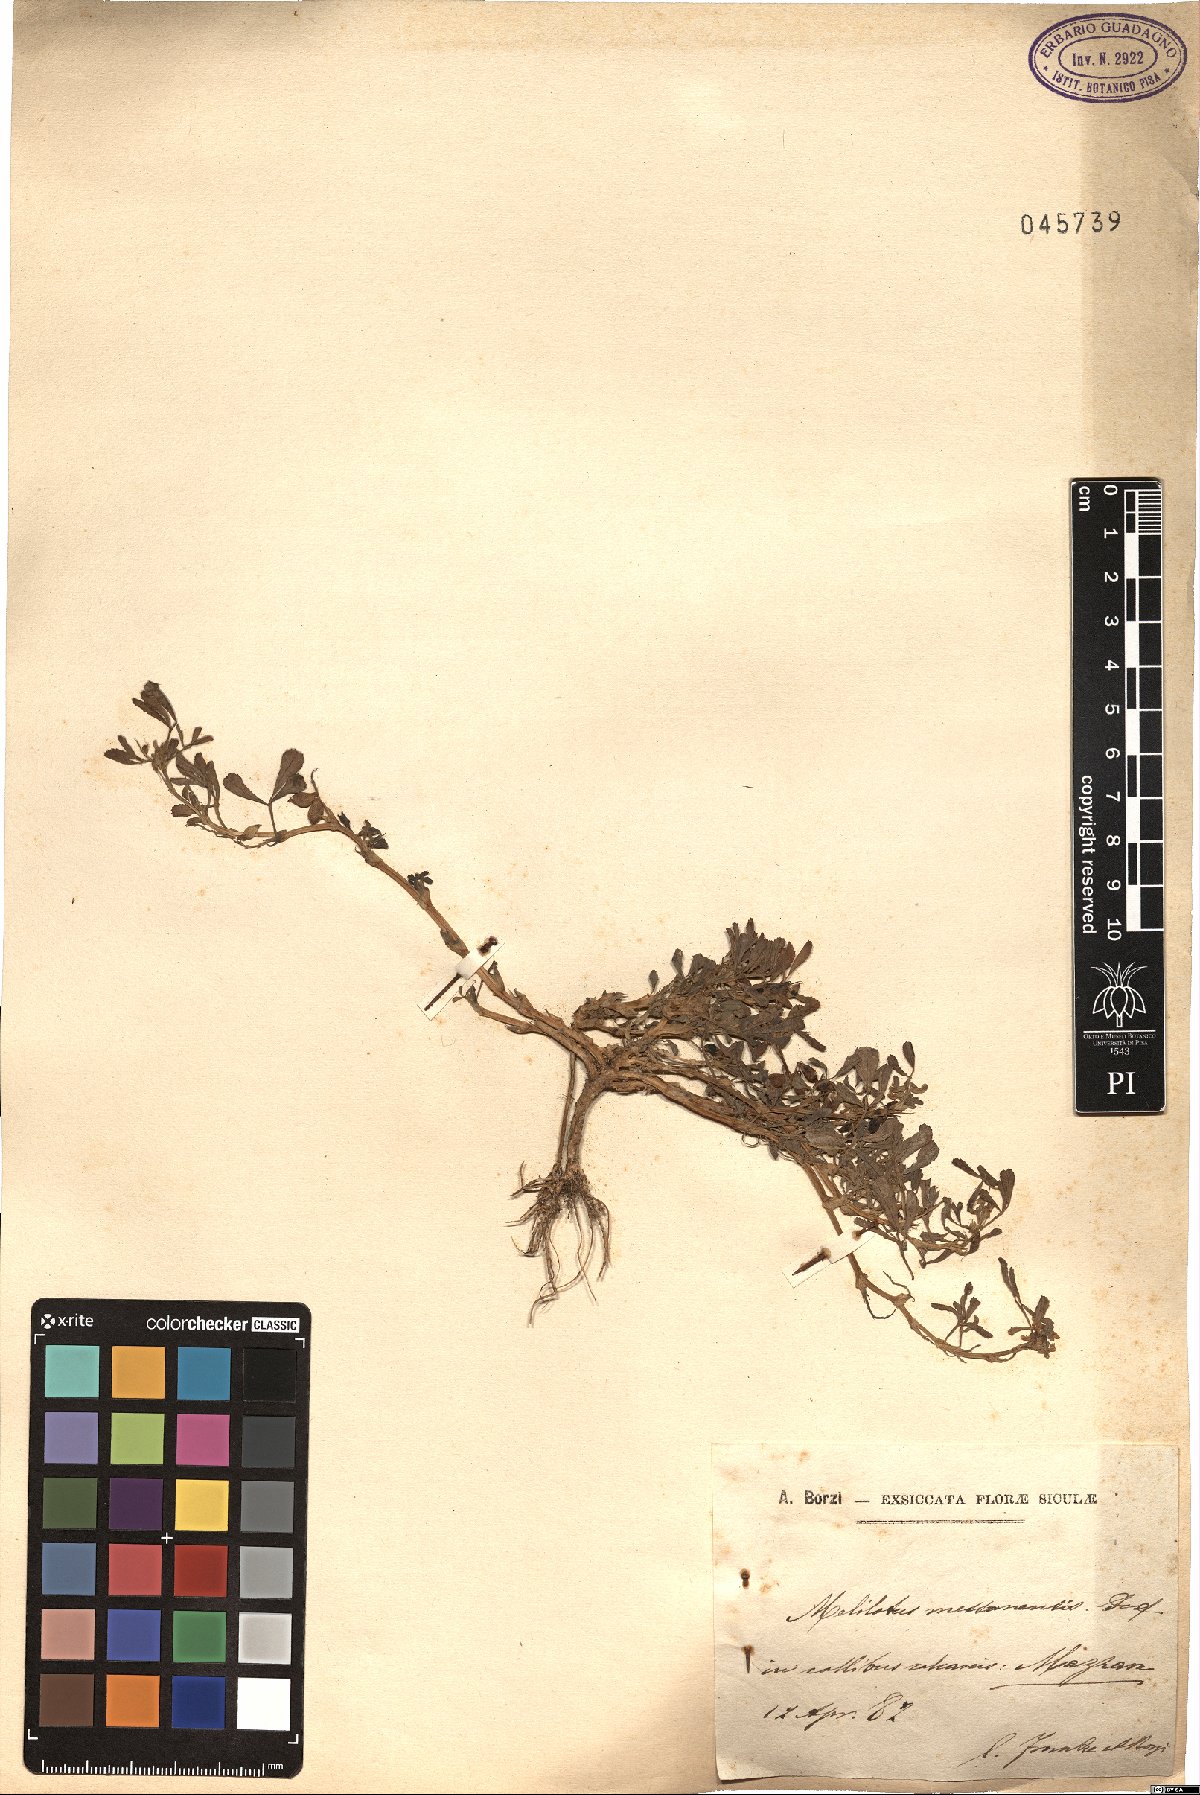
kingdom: Plantae
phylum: Tracheophyta
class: Magnoliopsida
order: Fabales
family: Fabaceae
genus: Melilotus
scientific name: Melilotus siculus
